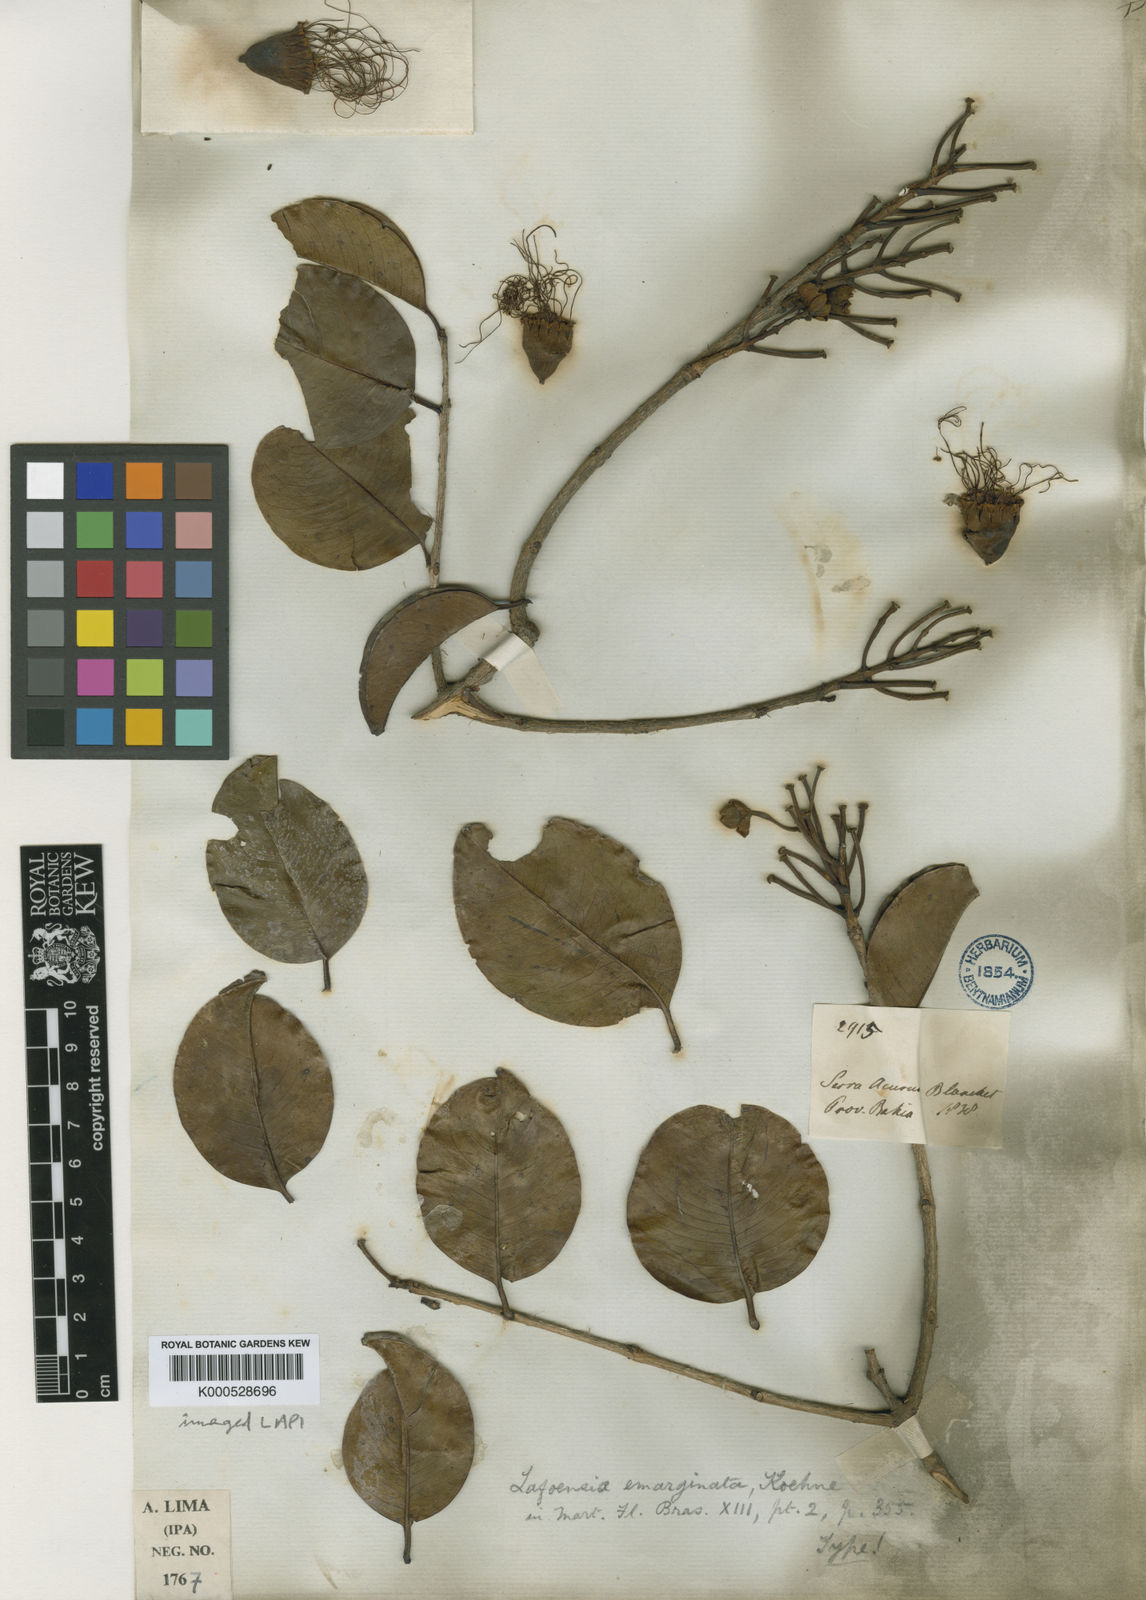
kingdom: Plantae
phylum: Tracheophyta
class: Magnoliopsida
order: Myrtales
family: Lythraceae
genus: Lafoensia
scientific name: Lafoensia emarginata
